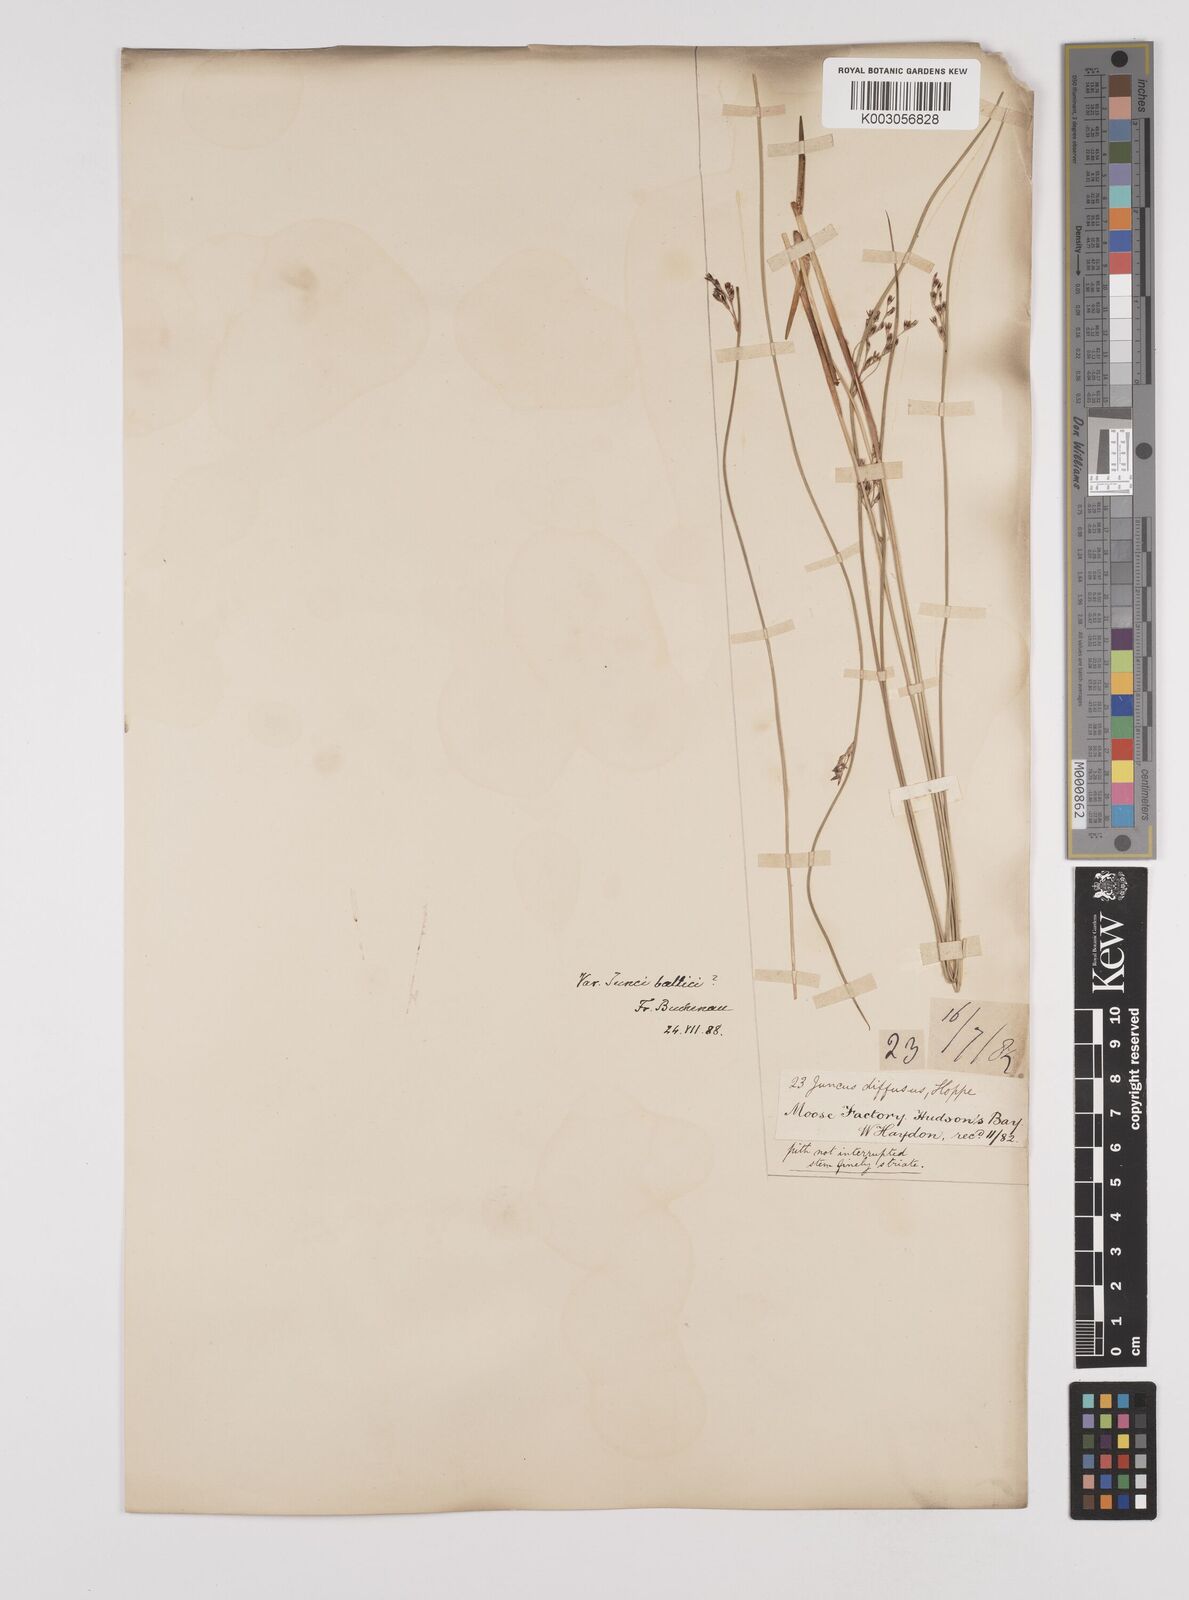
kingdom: Plantae
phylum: Tracheophyta
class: Liliopsida
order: Poales
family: Juncaceae
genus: Juncus
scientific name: Juncus balticus
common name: Baltic rush
